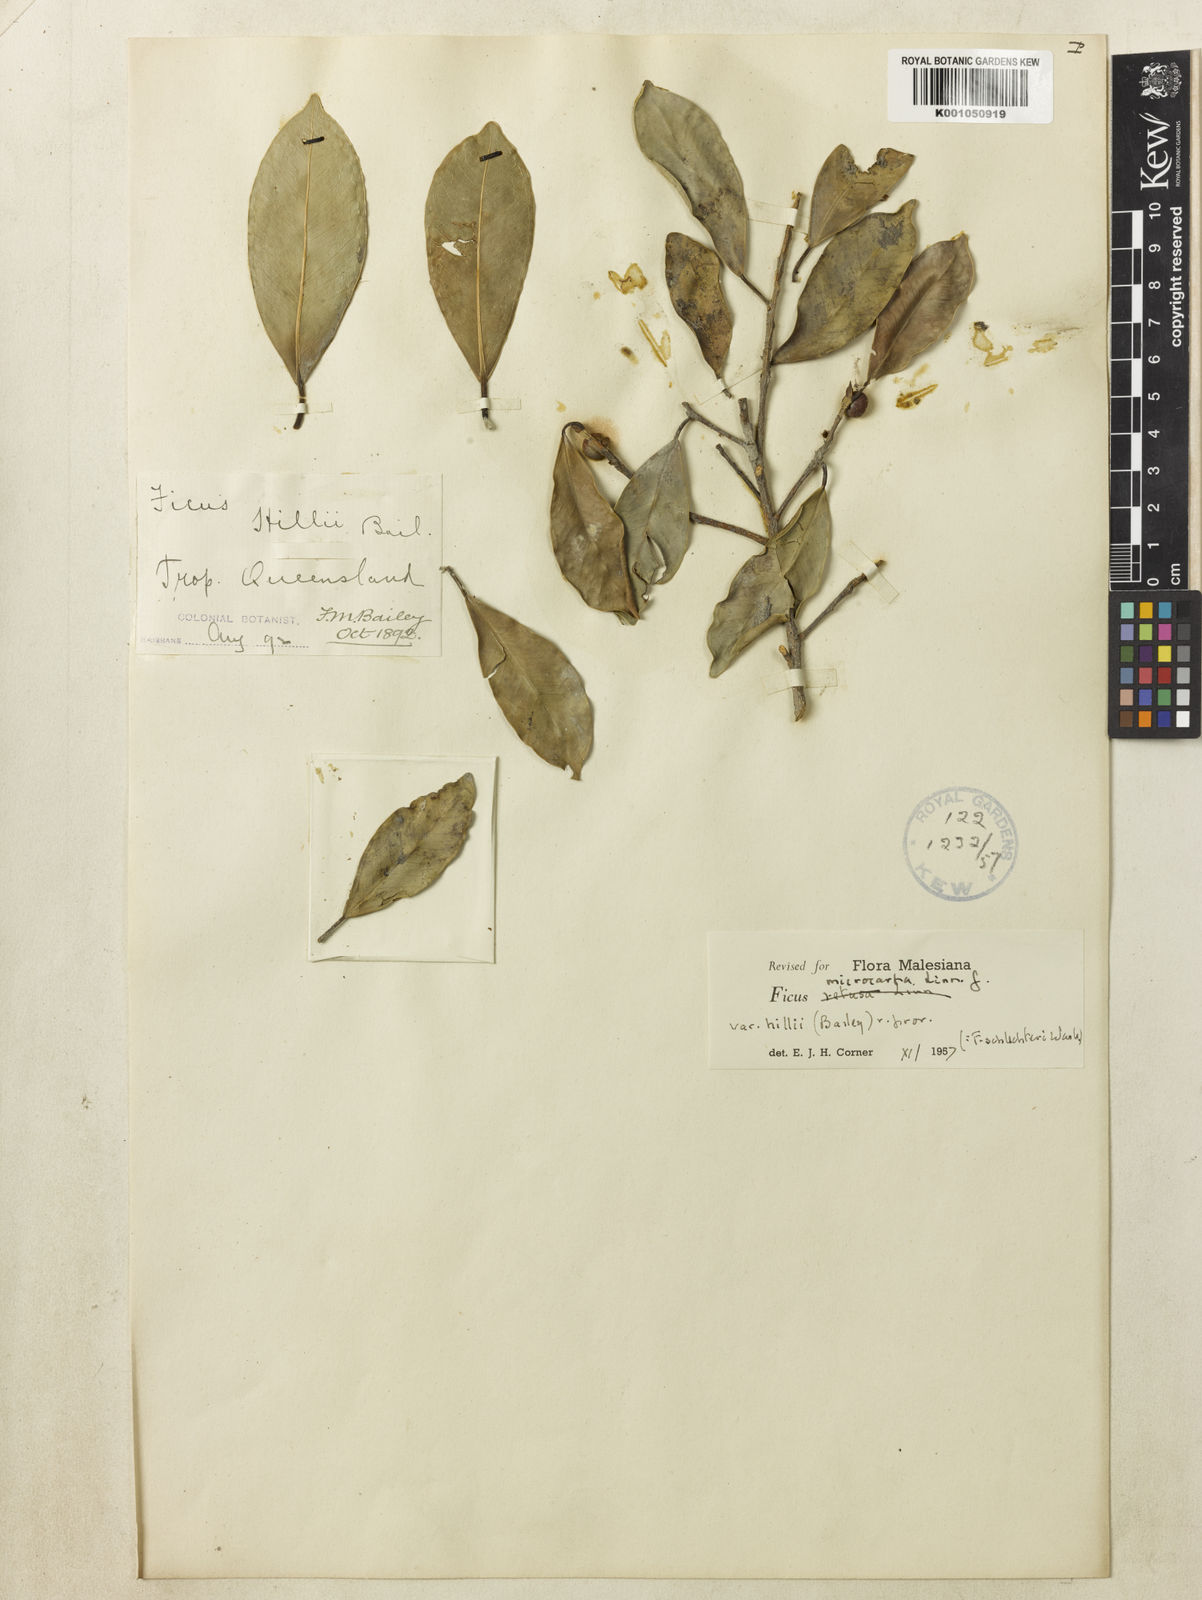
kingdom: Plantae
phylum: Tracheophyta
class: Magnoliopsida
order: Rosales
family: Moraceae
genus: Ficus
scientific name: Ficus microcarpa
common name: Chinese banyan
